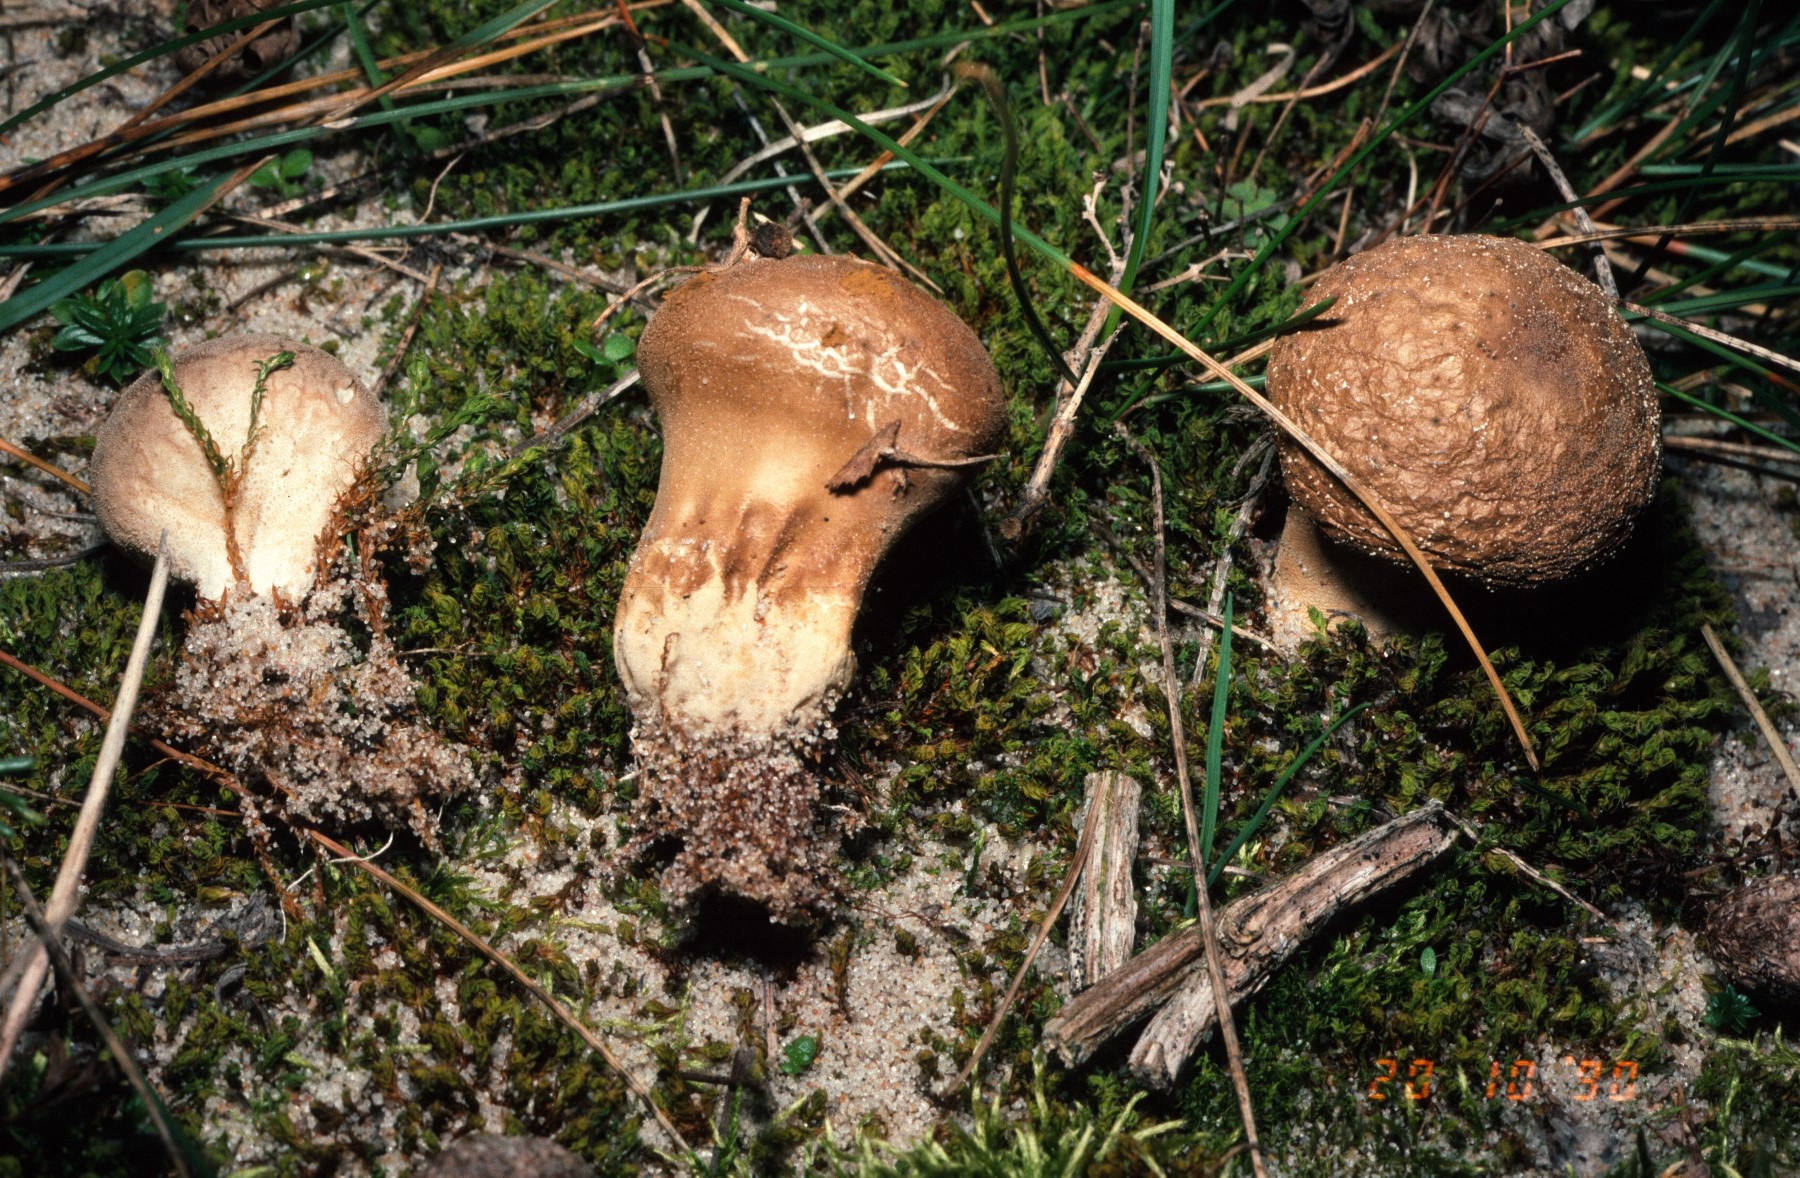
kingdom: Fungi
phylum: Basidiomycota
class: Agaricomycetes
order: Agaricales
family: Lycoperdaceae
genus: Lycoperdon
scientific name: Lycoperdon lividum
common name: mark-støvbold
